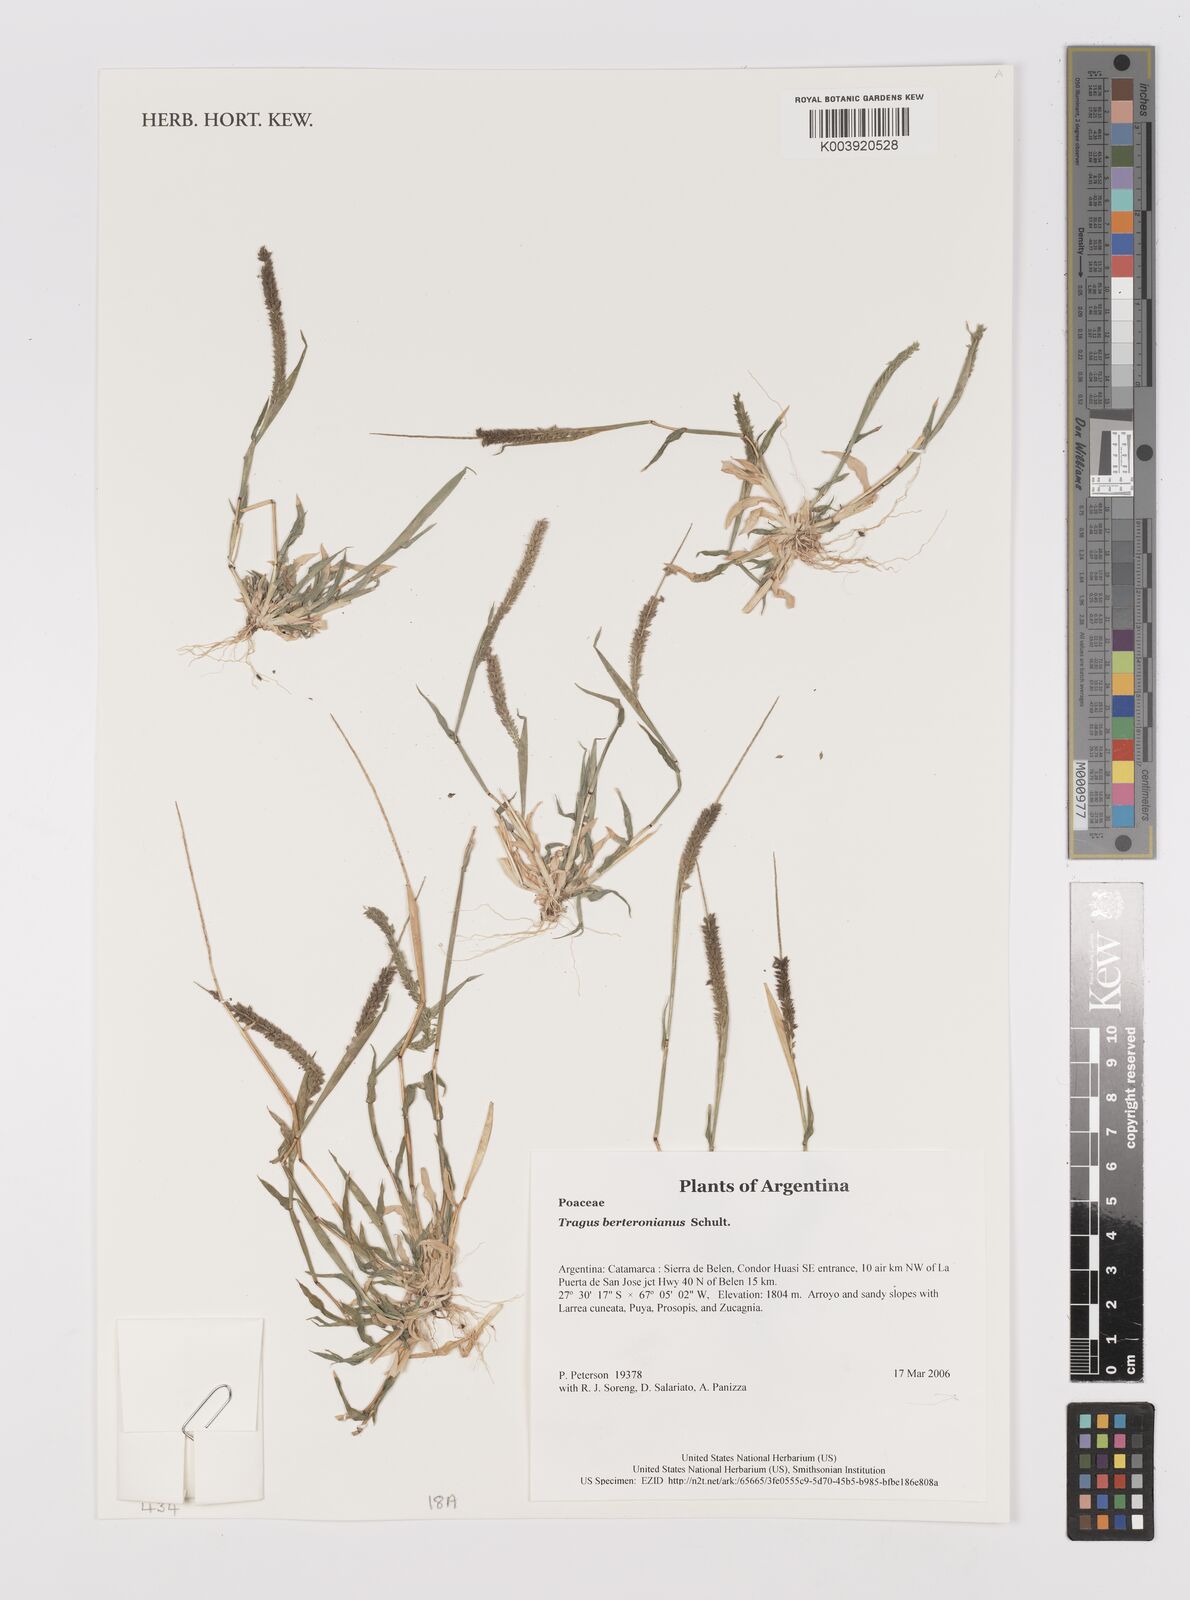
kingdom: Plantae
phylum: Tracheophyta
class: Liliopsida
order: Poales
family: Poaceae
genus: Tragus
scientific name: Tragus berteronianus
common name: African bur-grass
